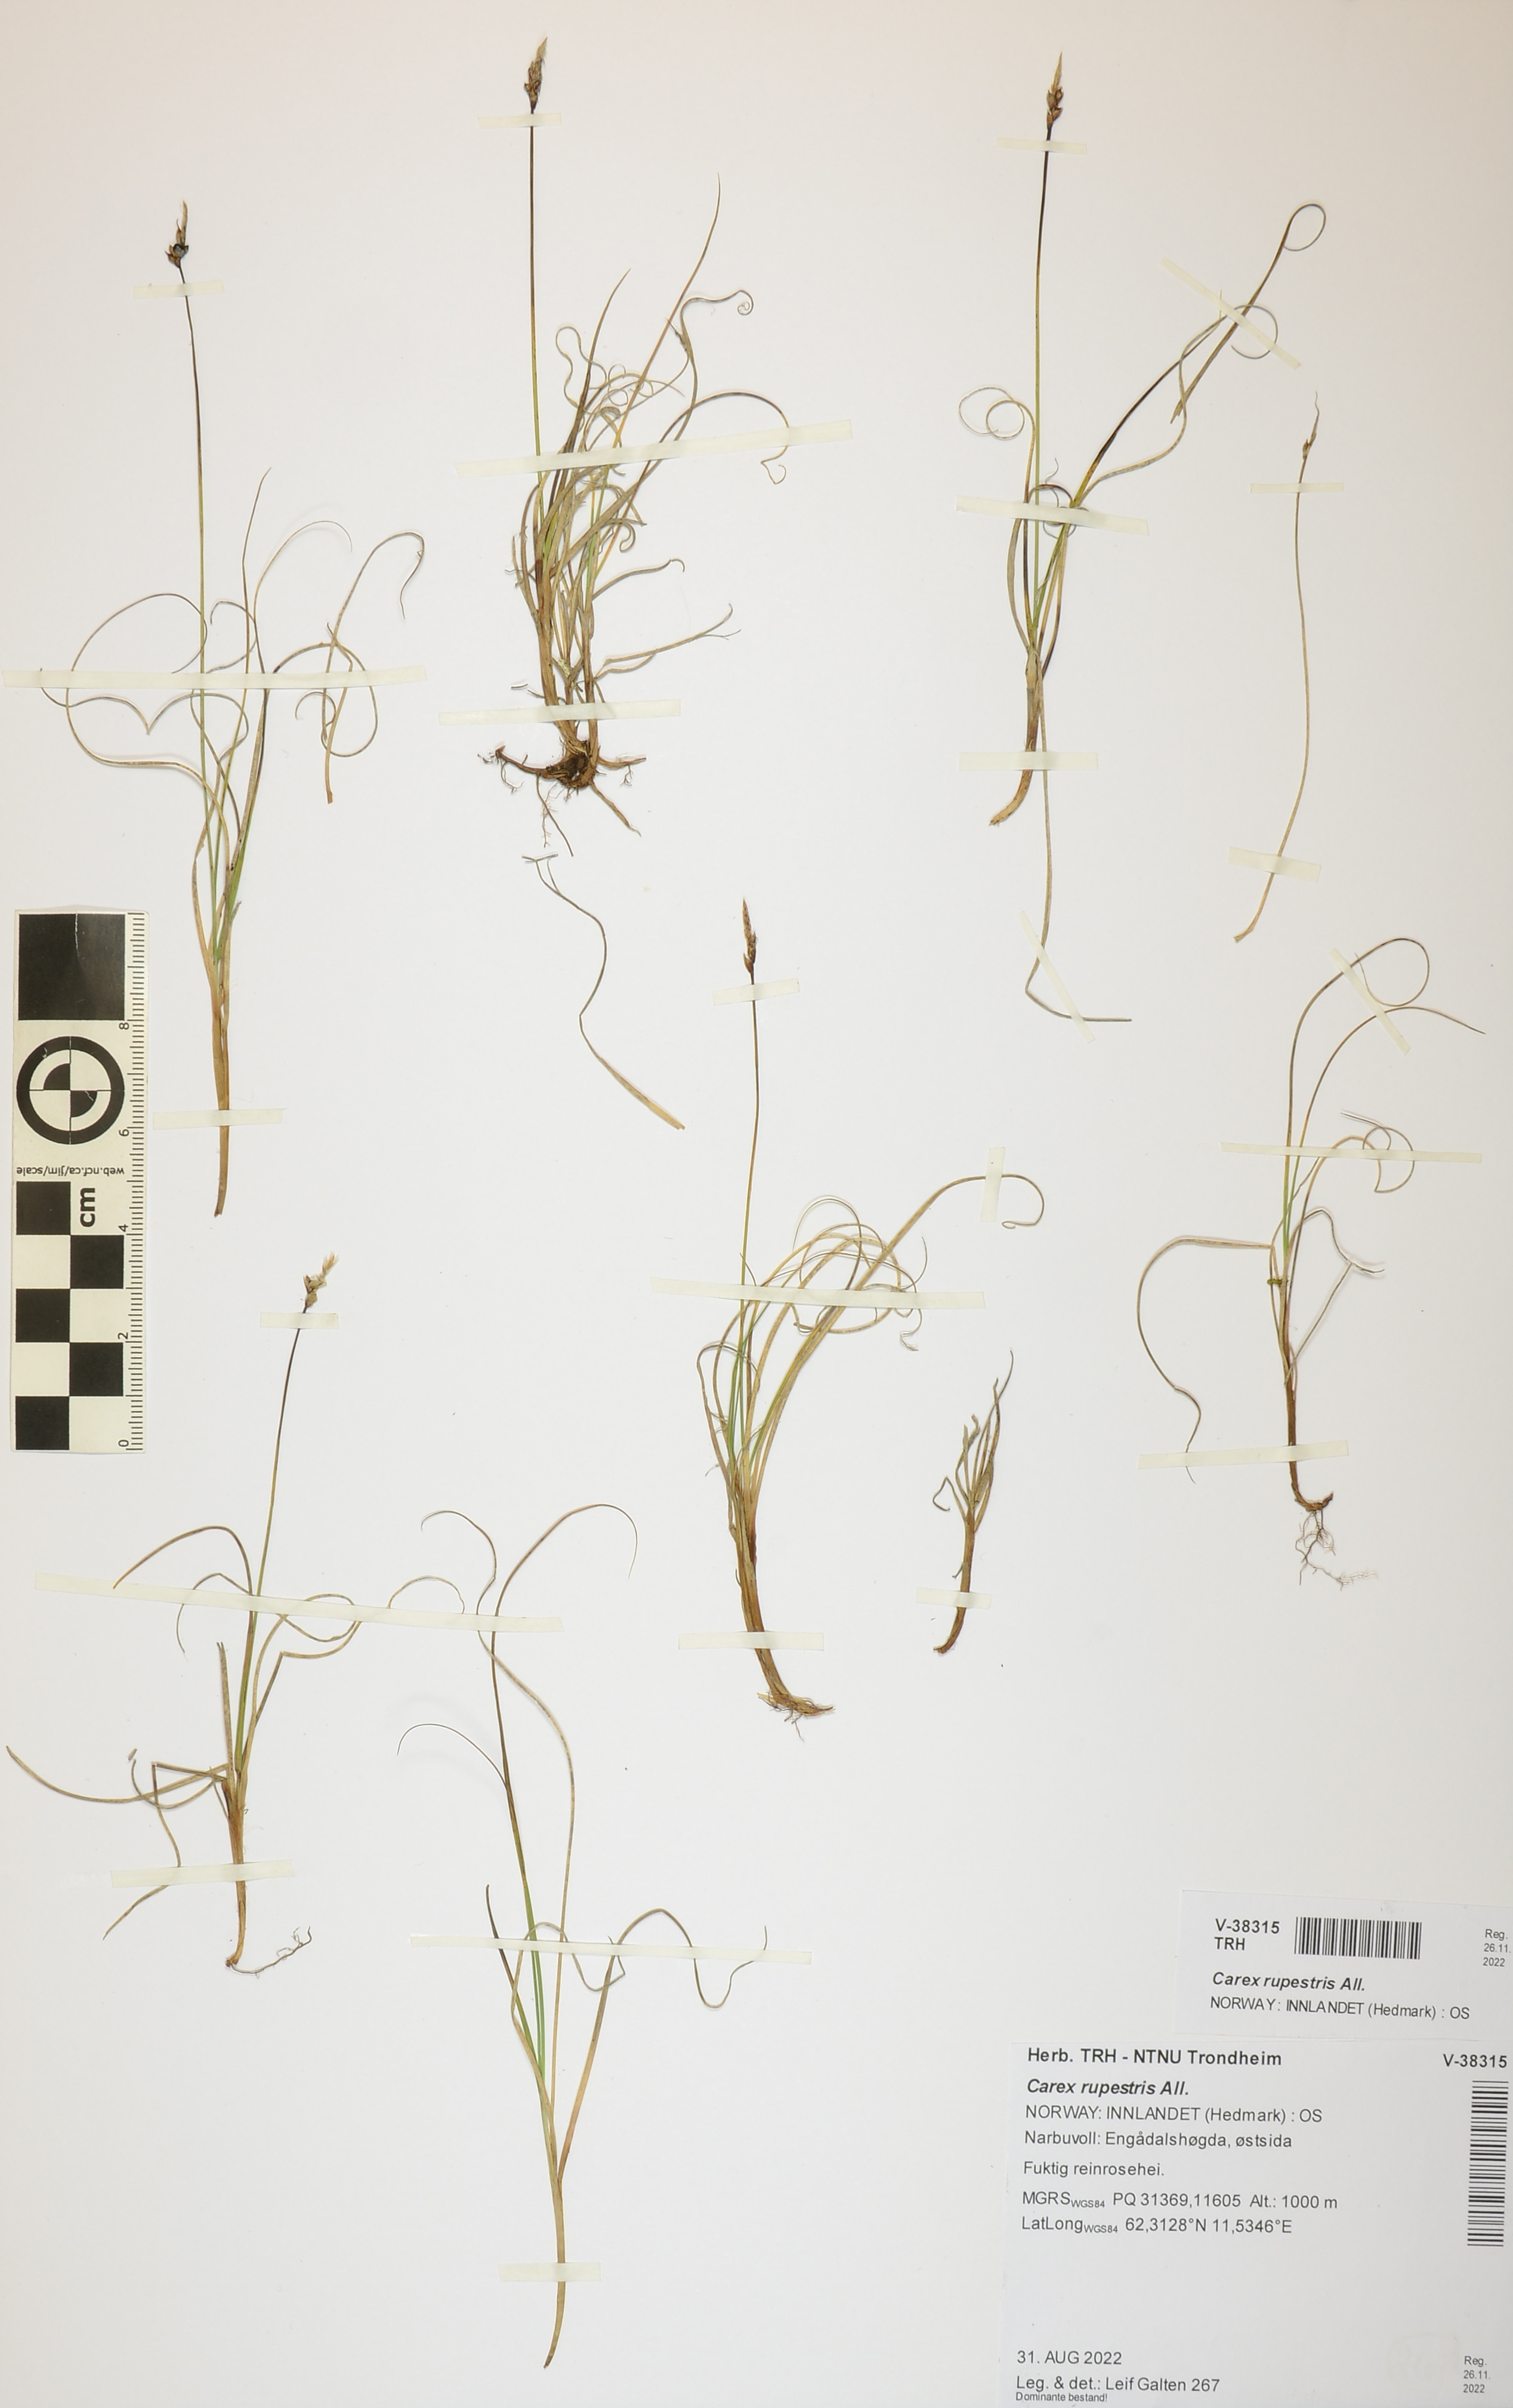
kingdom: Plantae
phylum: Tracheophyta
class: Liliopsida
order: Poales
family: Cyperaceae
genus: Carex
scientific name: Carex rupestris
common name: Rock sedge
